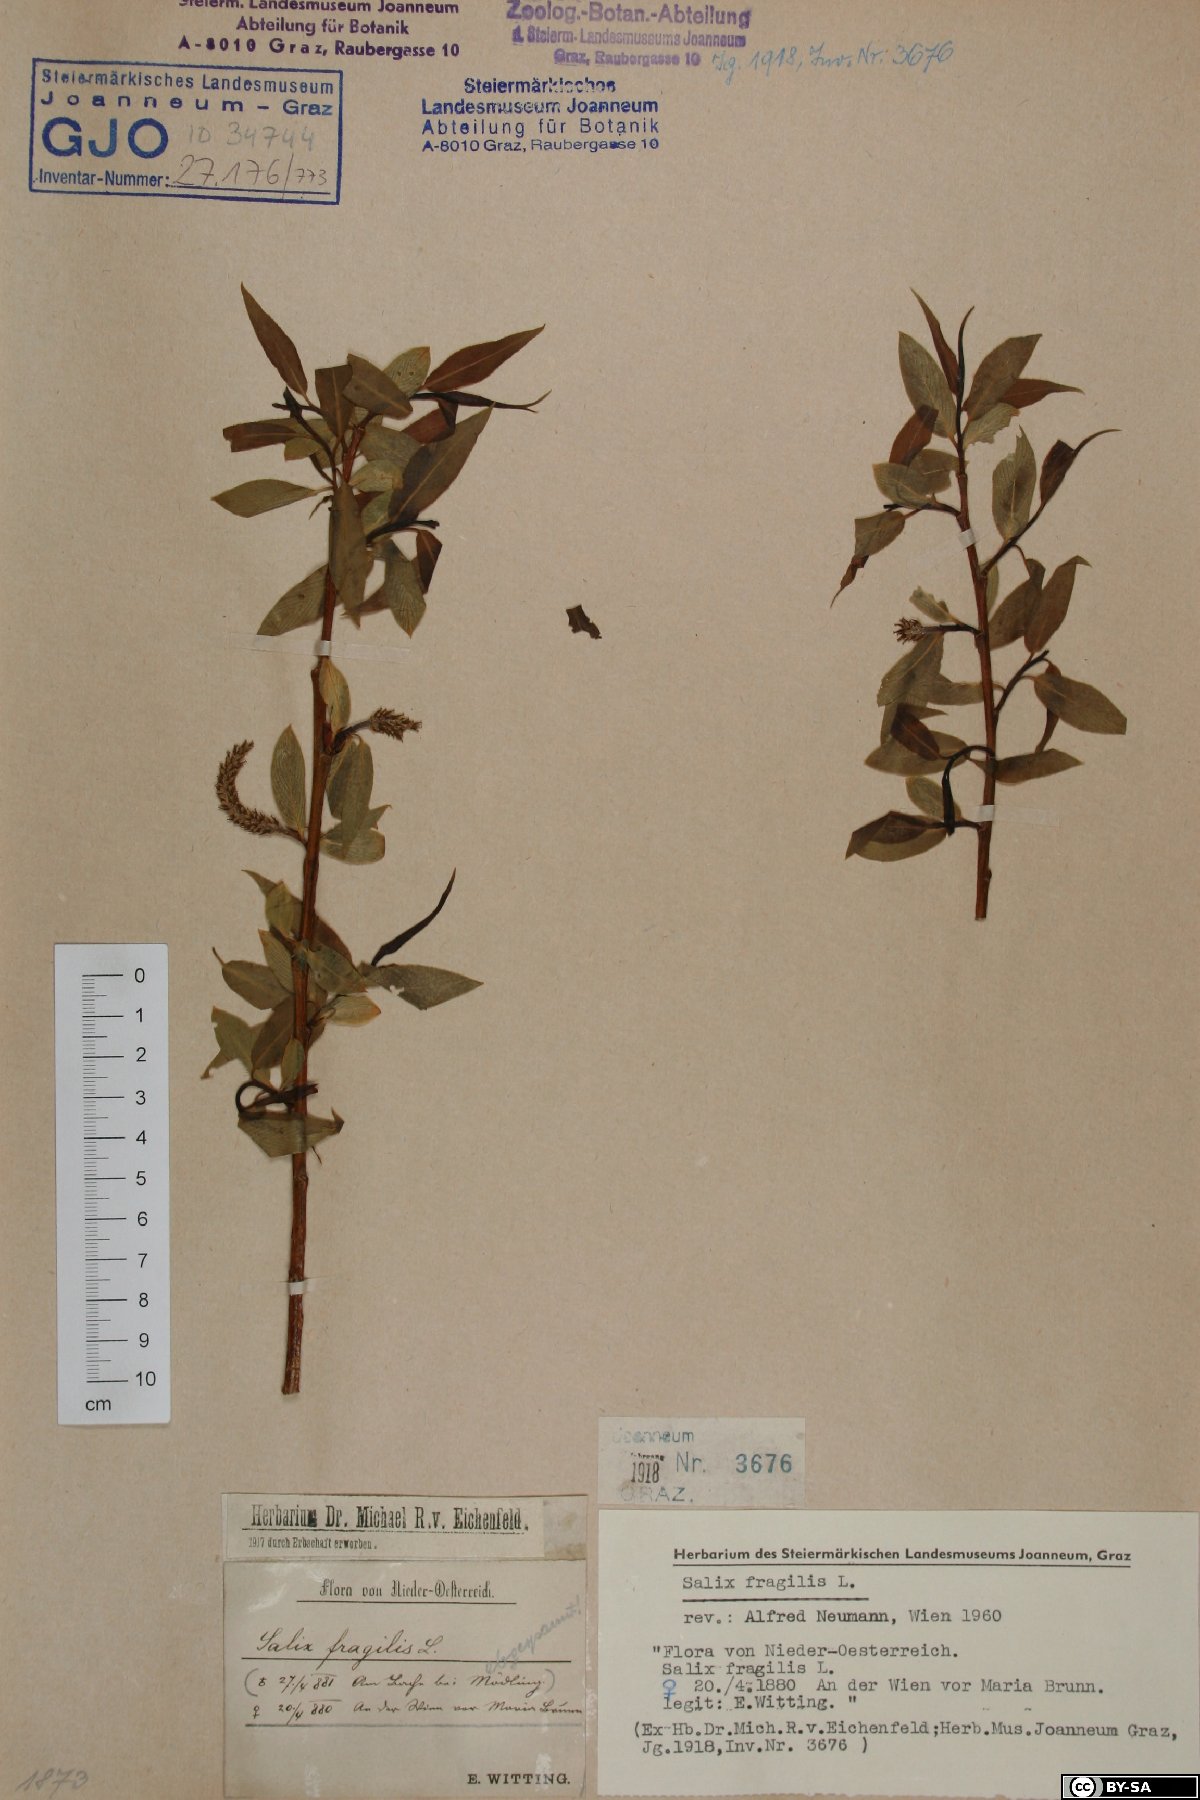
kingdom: Plantae
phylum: Tracheophyta
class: Magnoliopsida
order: Malpighiales
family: Salicaceae
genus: Salix
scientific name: Salix fragilis
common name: Crack willow
